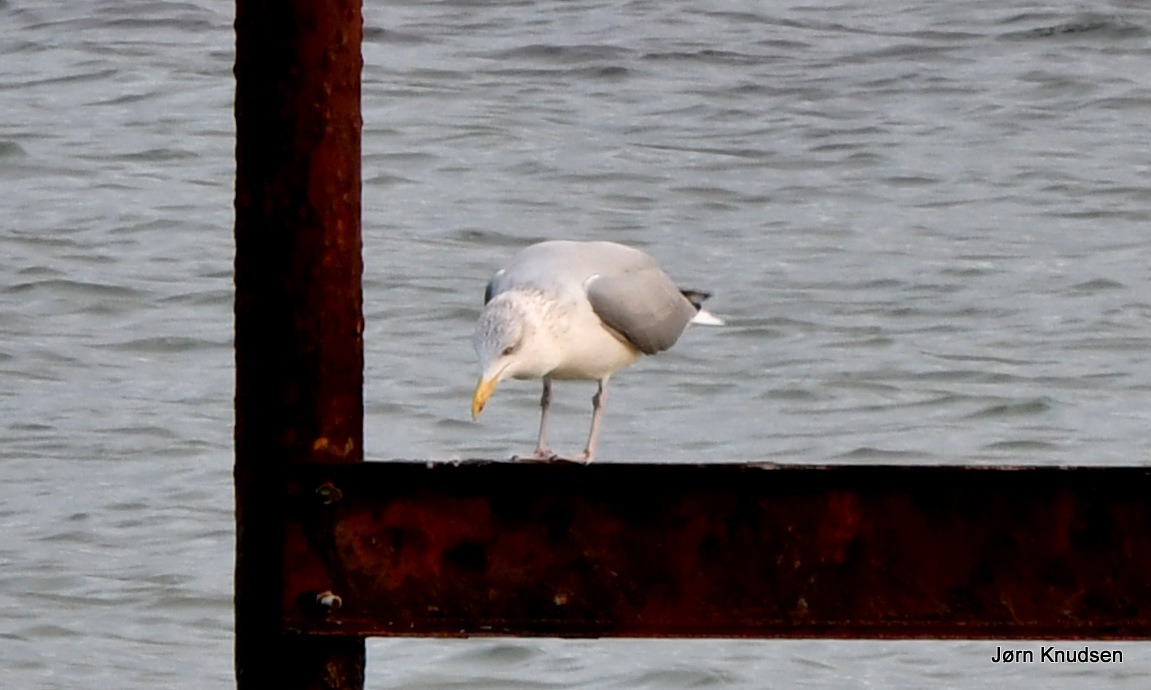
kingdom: Animalia
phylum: Chordata
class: Aves
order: Charadriiformes
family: Laridae
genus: Larus
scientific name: Larus argentatus
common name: Sølvmåge
